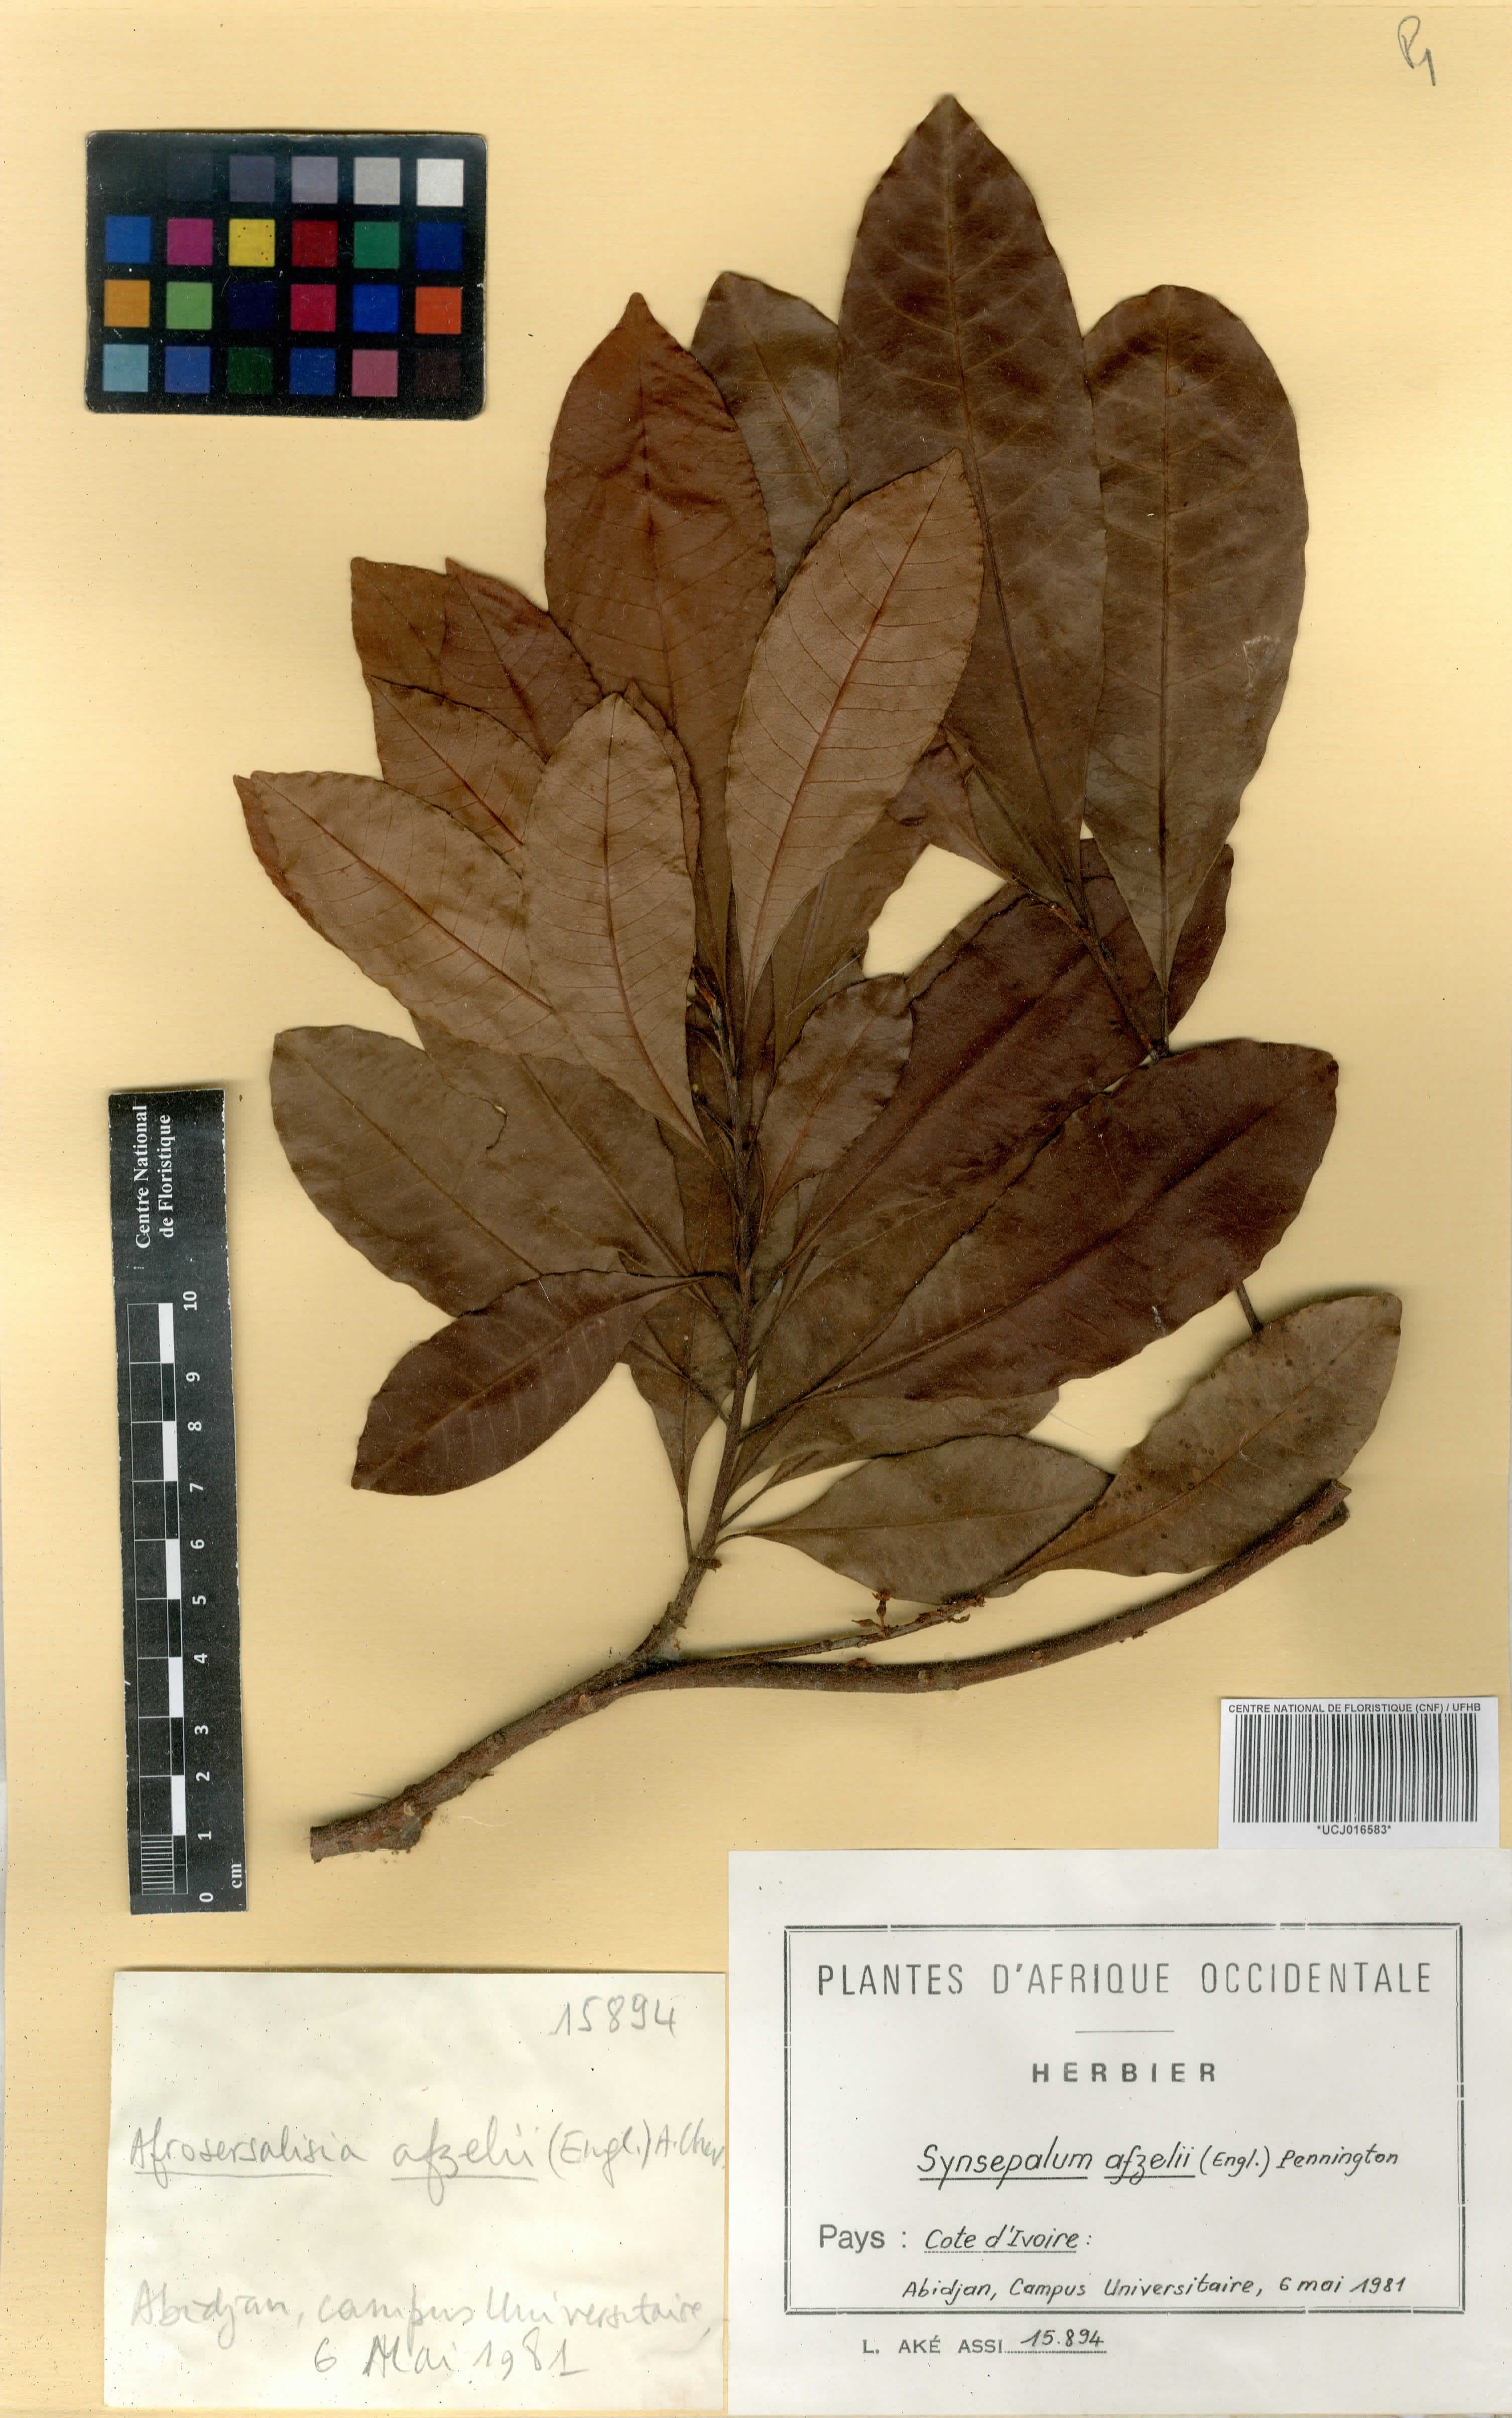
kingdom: Plantae
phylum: Tracheophyta
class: Magnoliopsida
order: Ericales
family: Sapotaceae
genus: Synsepalum
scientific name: Synsepalum afzelii
